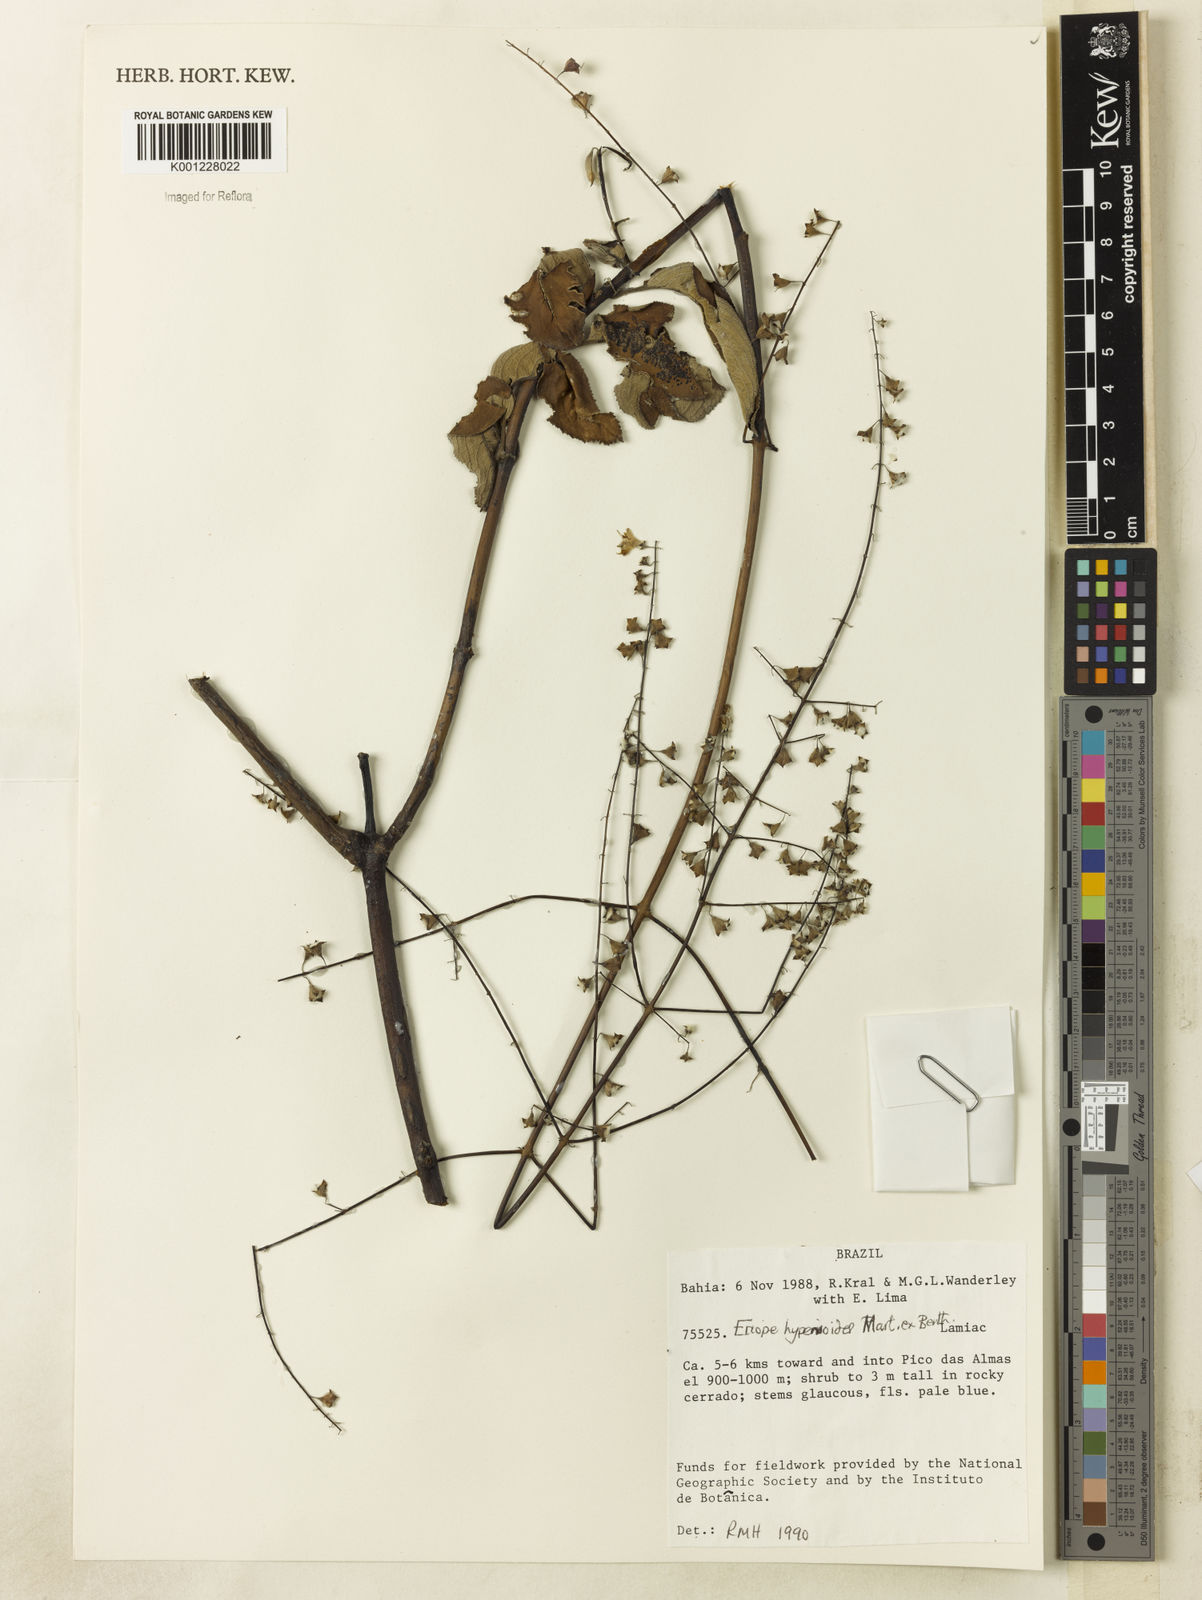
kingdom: Plantae
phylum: Tracheophyta
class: Magnoliopsida
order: Lamiales
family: Lamiaceae
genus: Eriope
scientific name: Eriope hypenioides
